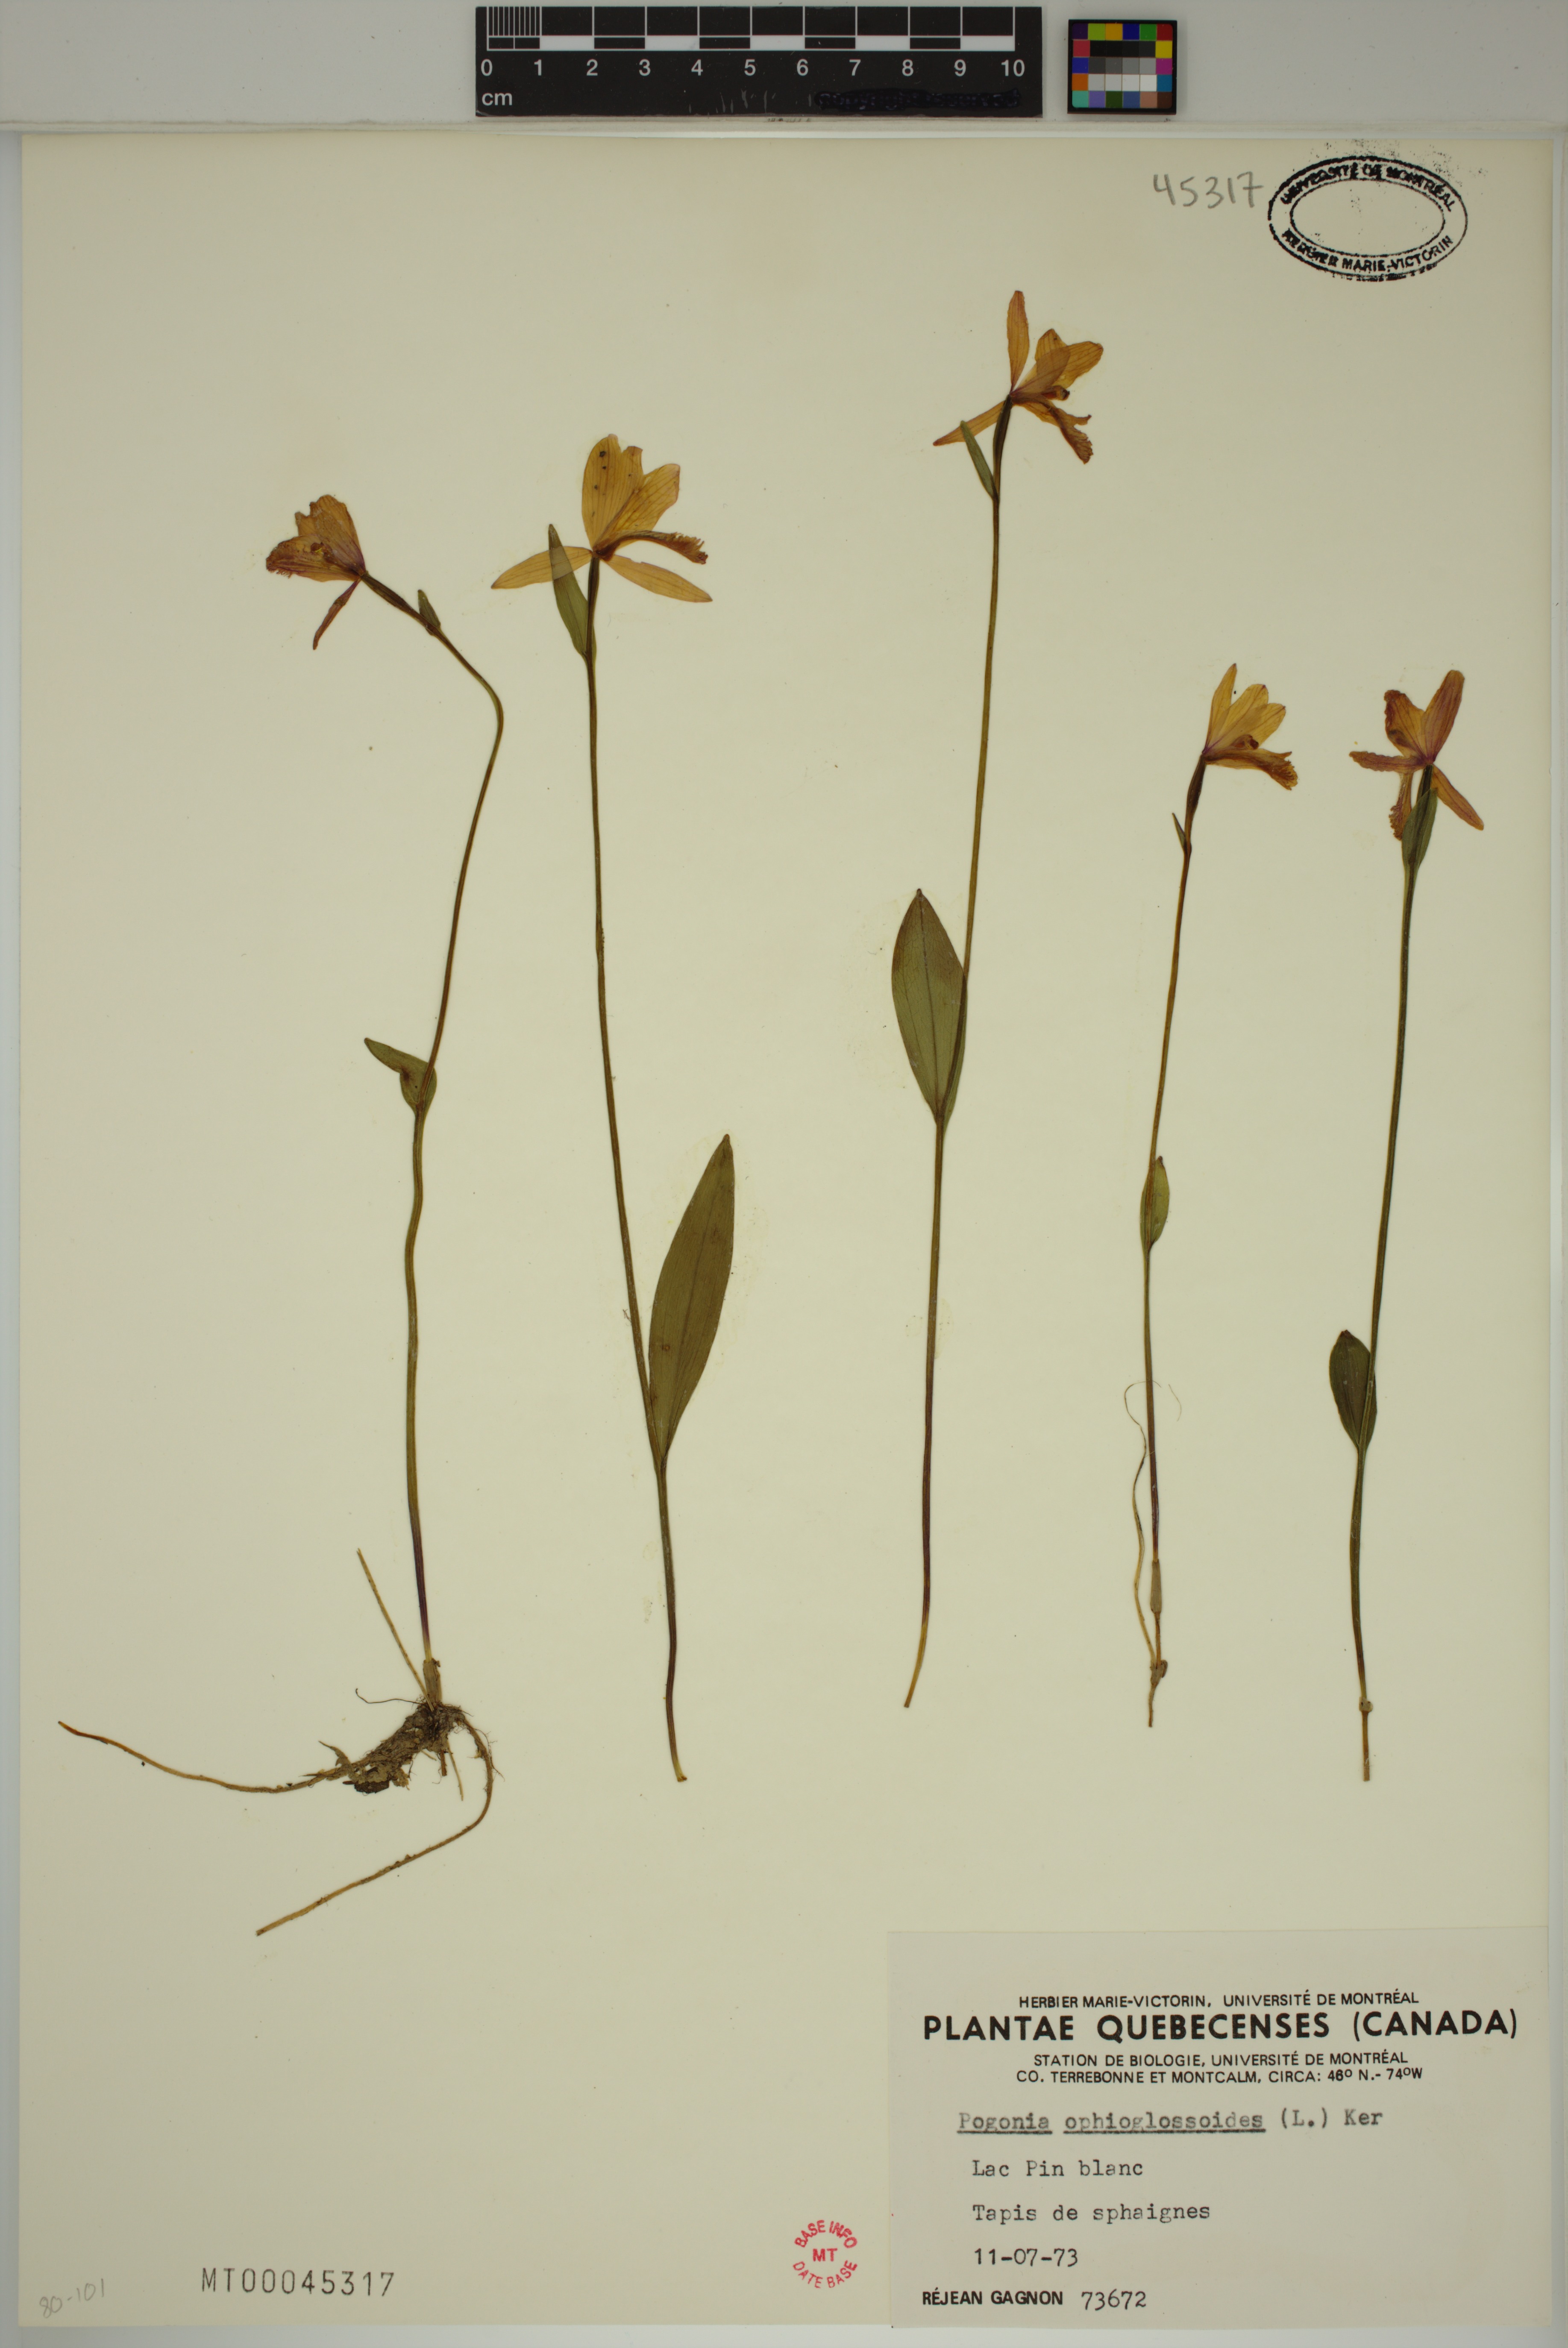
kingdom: Plantae
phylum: Tracheophyta
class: Liliopsida
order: Asparagales
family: Orchidaceae
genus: Pogonia
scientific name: Pogonia ophioglossoides
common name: Rose pogonia
